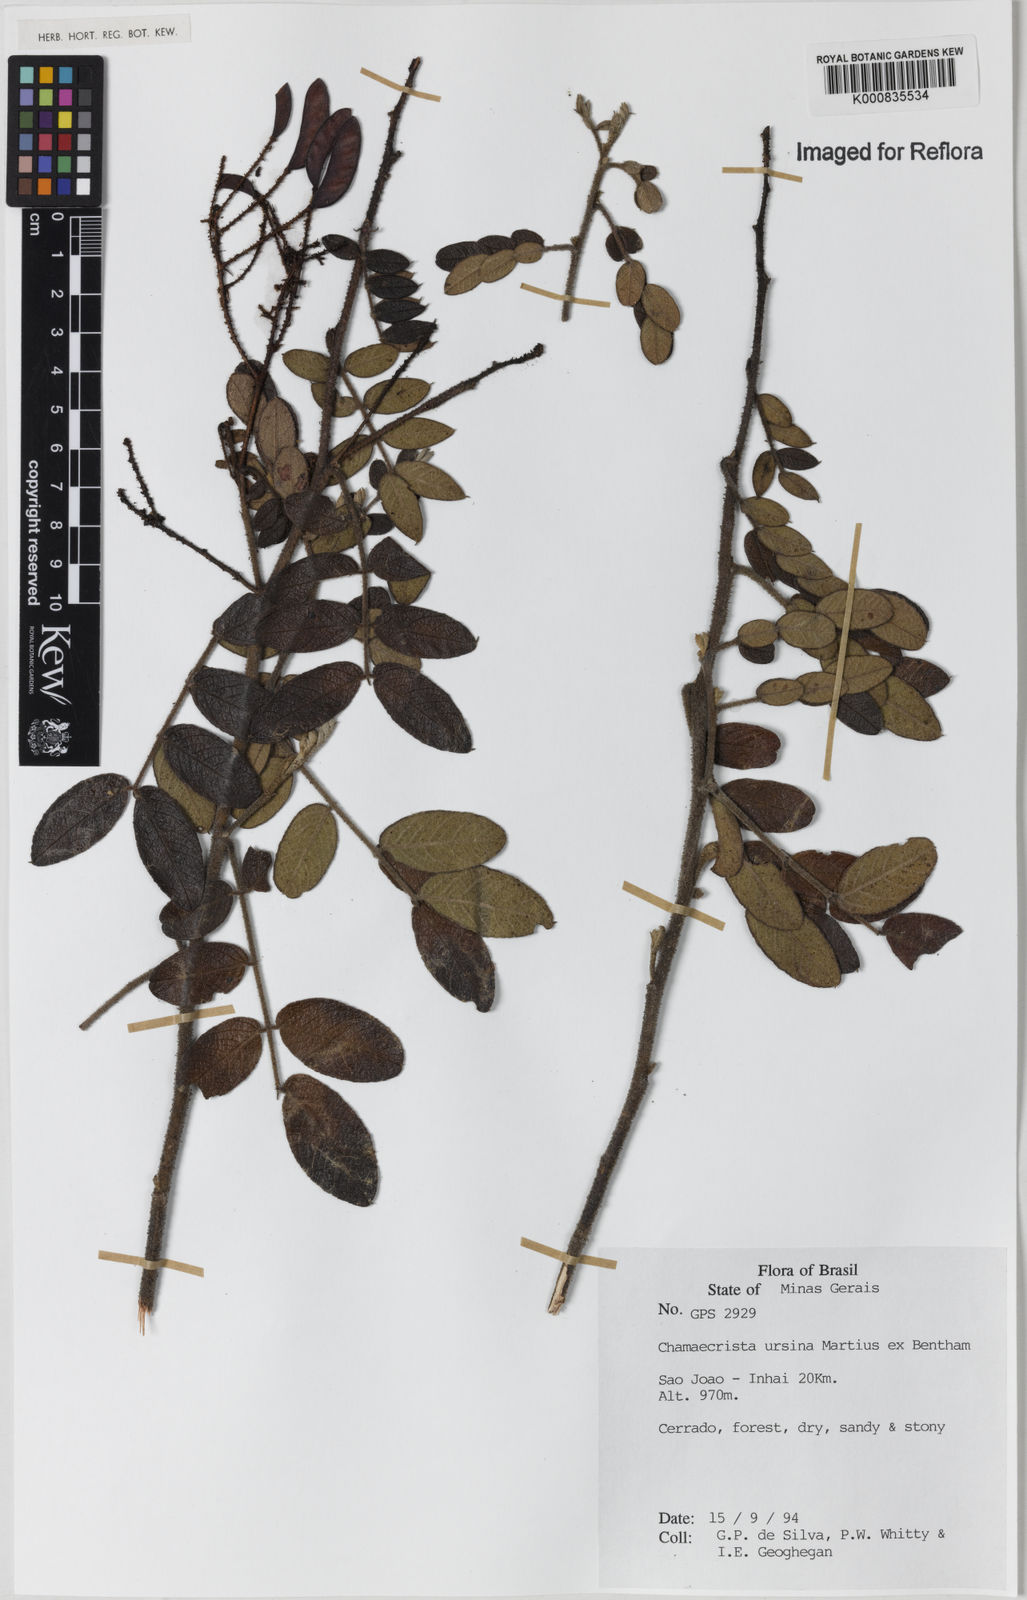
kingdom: Plantae
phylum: Tracheophyta
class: Magnoliopsida
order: Fabales
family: Fabaceae
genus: Chamaecrista
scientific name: Chamaecrista ursina
